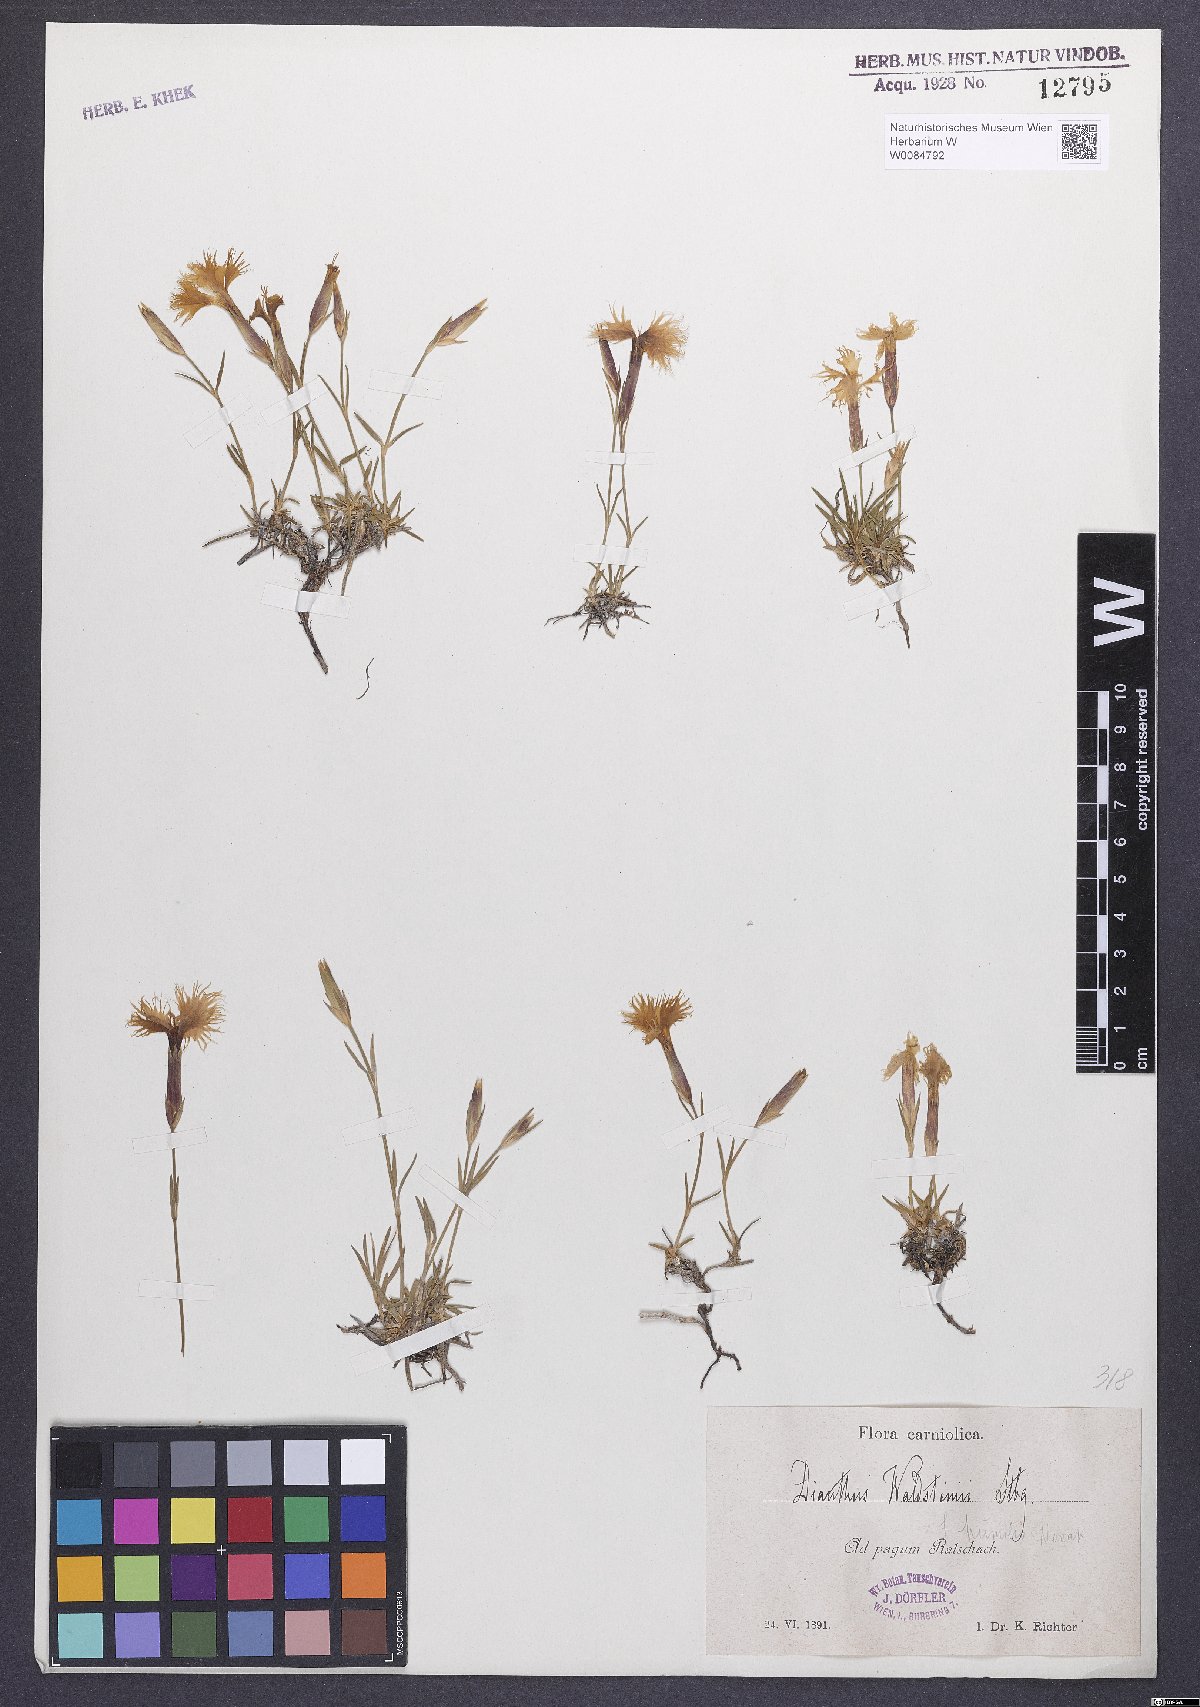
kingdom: Plantae
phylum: Tracheophyta
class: Magnoliopsida
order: Caryophyllales
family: Caryophyllaceae
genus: Dianthus
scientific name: Dianthus monspessulanus
